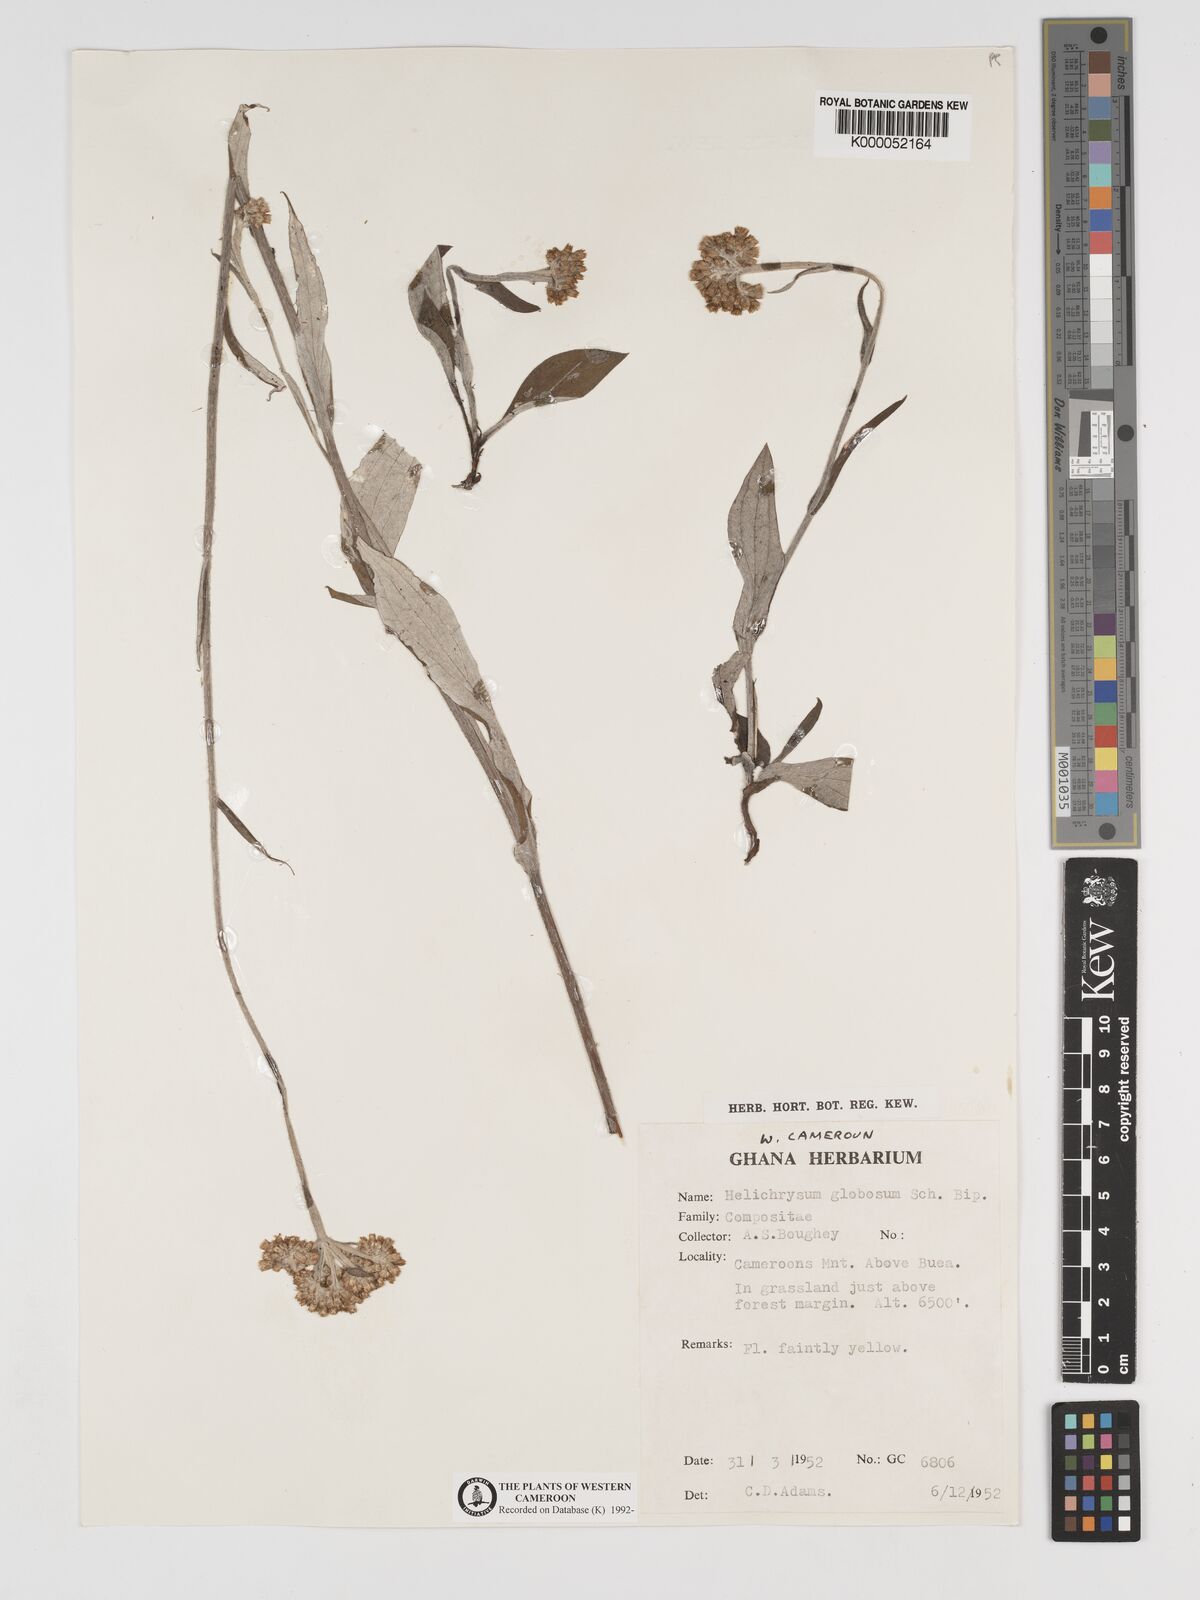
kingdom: Plantae
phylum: Tracheophyta
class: Magnoliopsida
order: Asterales
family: Asteraceae
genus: Helichrysum
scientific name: Helichrysum
